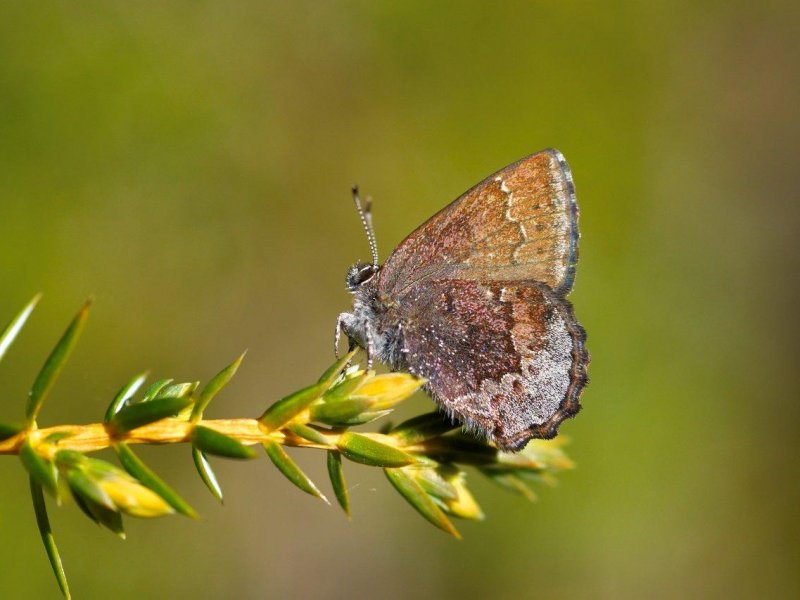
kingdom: Animalia
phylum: Arthropoda
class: Insecta
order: Lepidoptera
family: Lycaenidae
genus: Callophrys
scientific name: Callophrys polios
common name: Hoary Elfin
